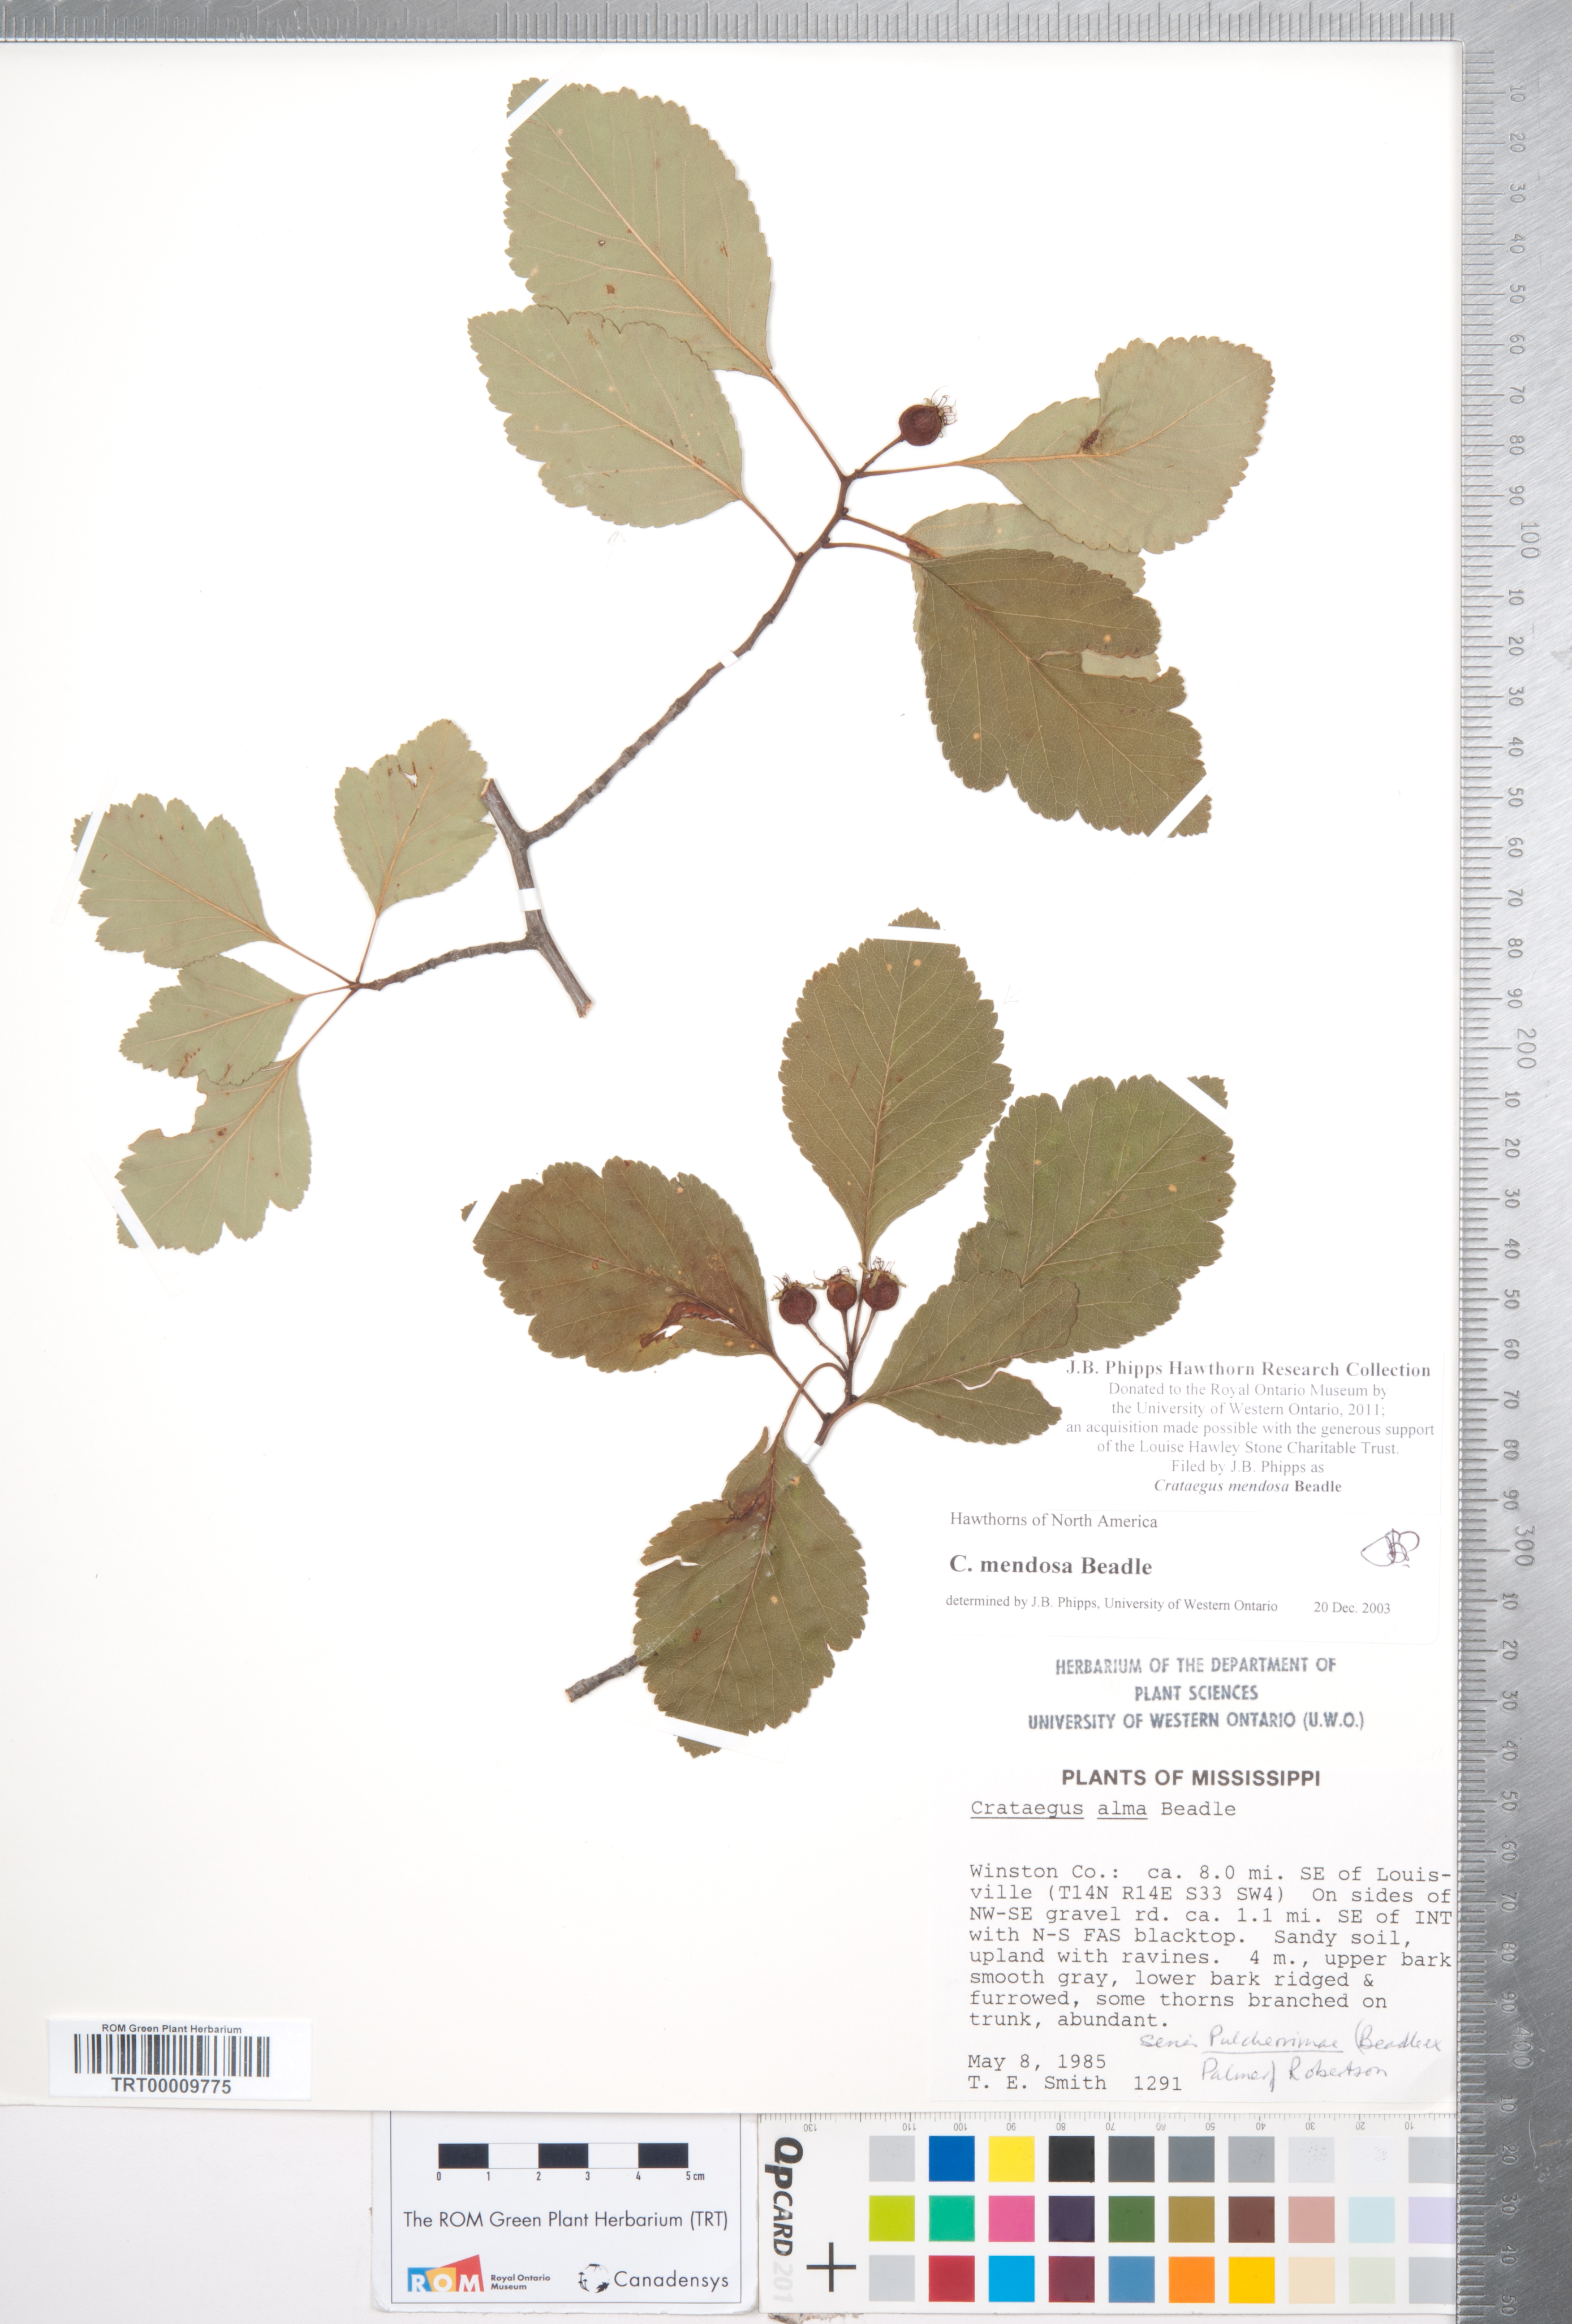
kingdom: Plantae
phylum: Tracheophyta
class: Magnoliopsida
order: Rosales
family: Rosaceae
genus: Crataegus
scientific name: Crataegus pulcherrima
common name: Beautiful hawthorn
